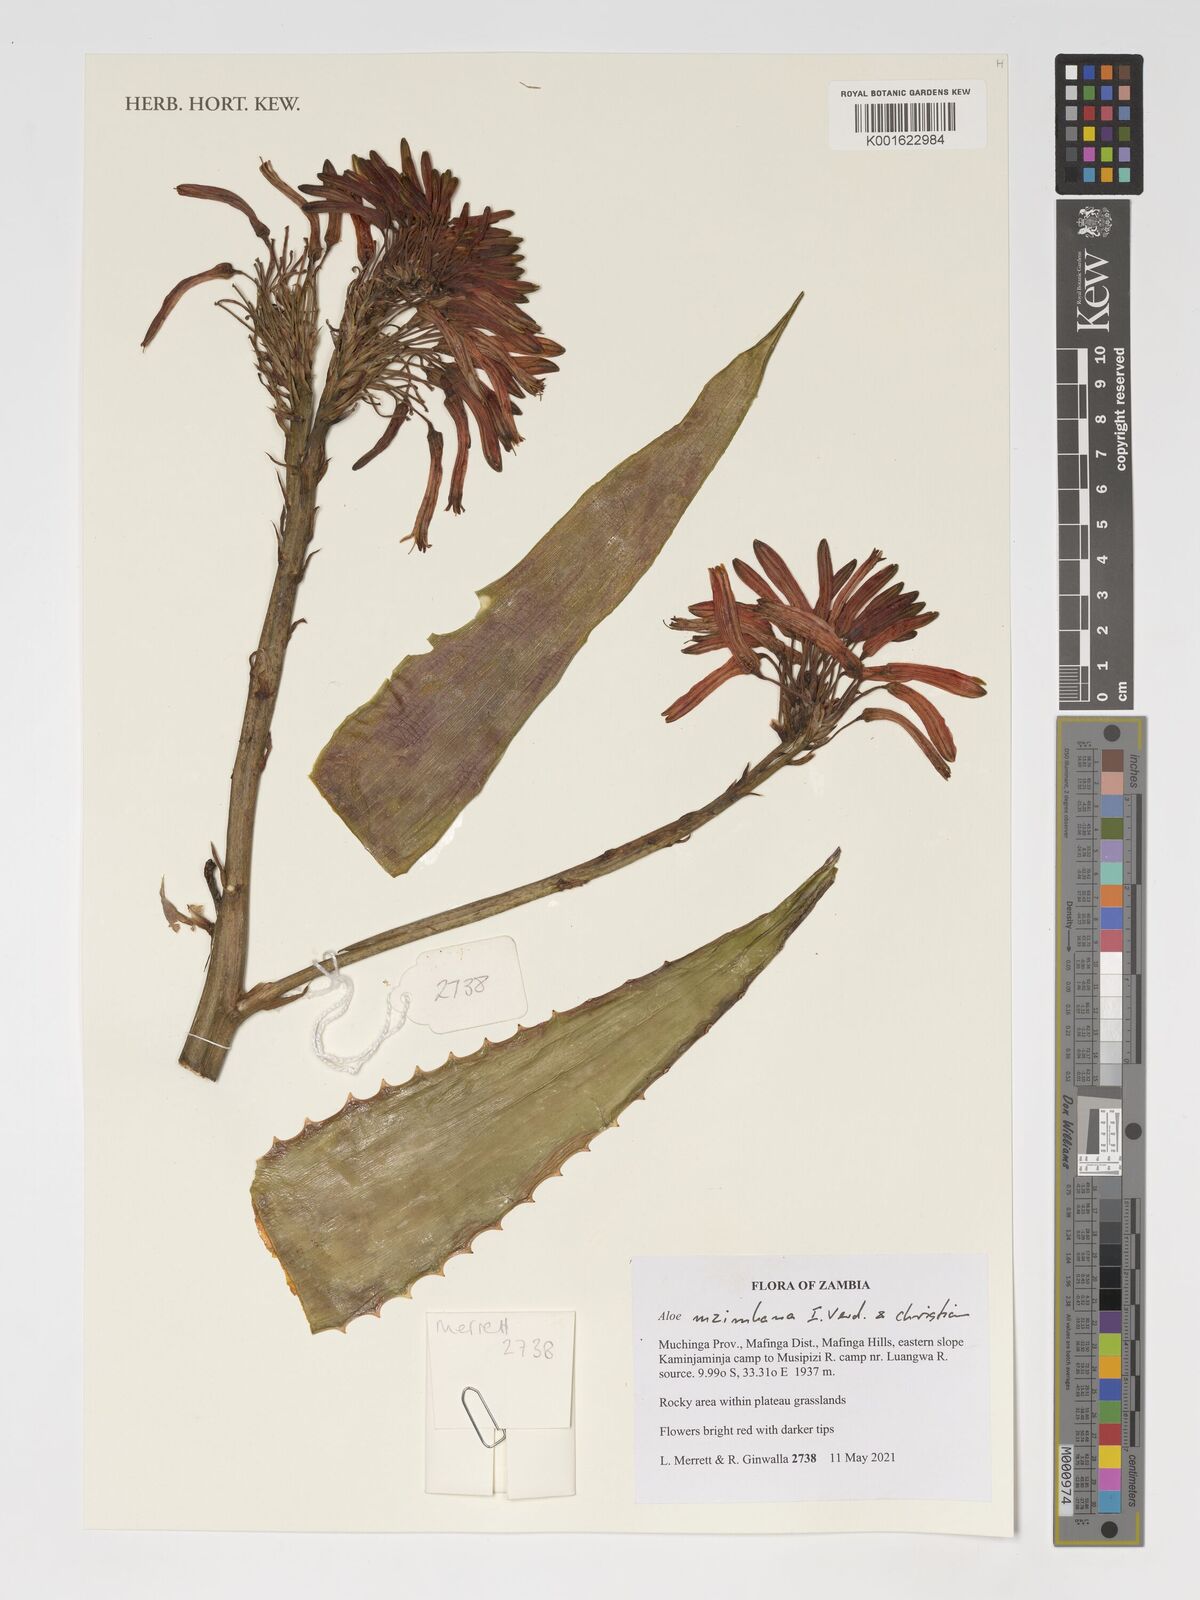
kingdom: Plantae
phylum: Tracheophyta
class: Liliopsida
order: Asparagales
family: Asphodelaceae
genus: Aloe
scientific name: Aloe mzimbana
